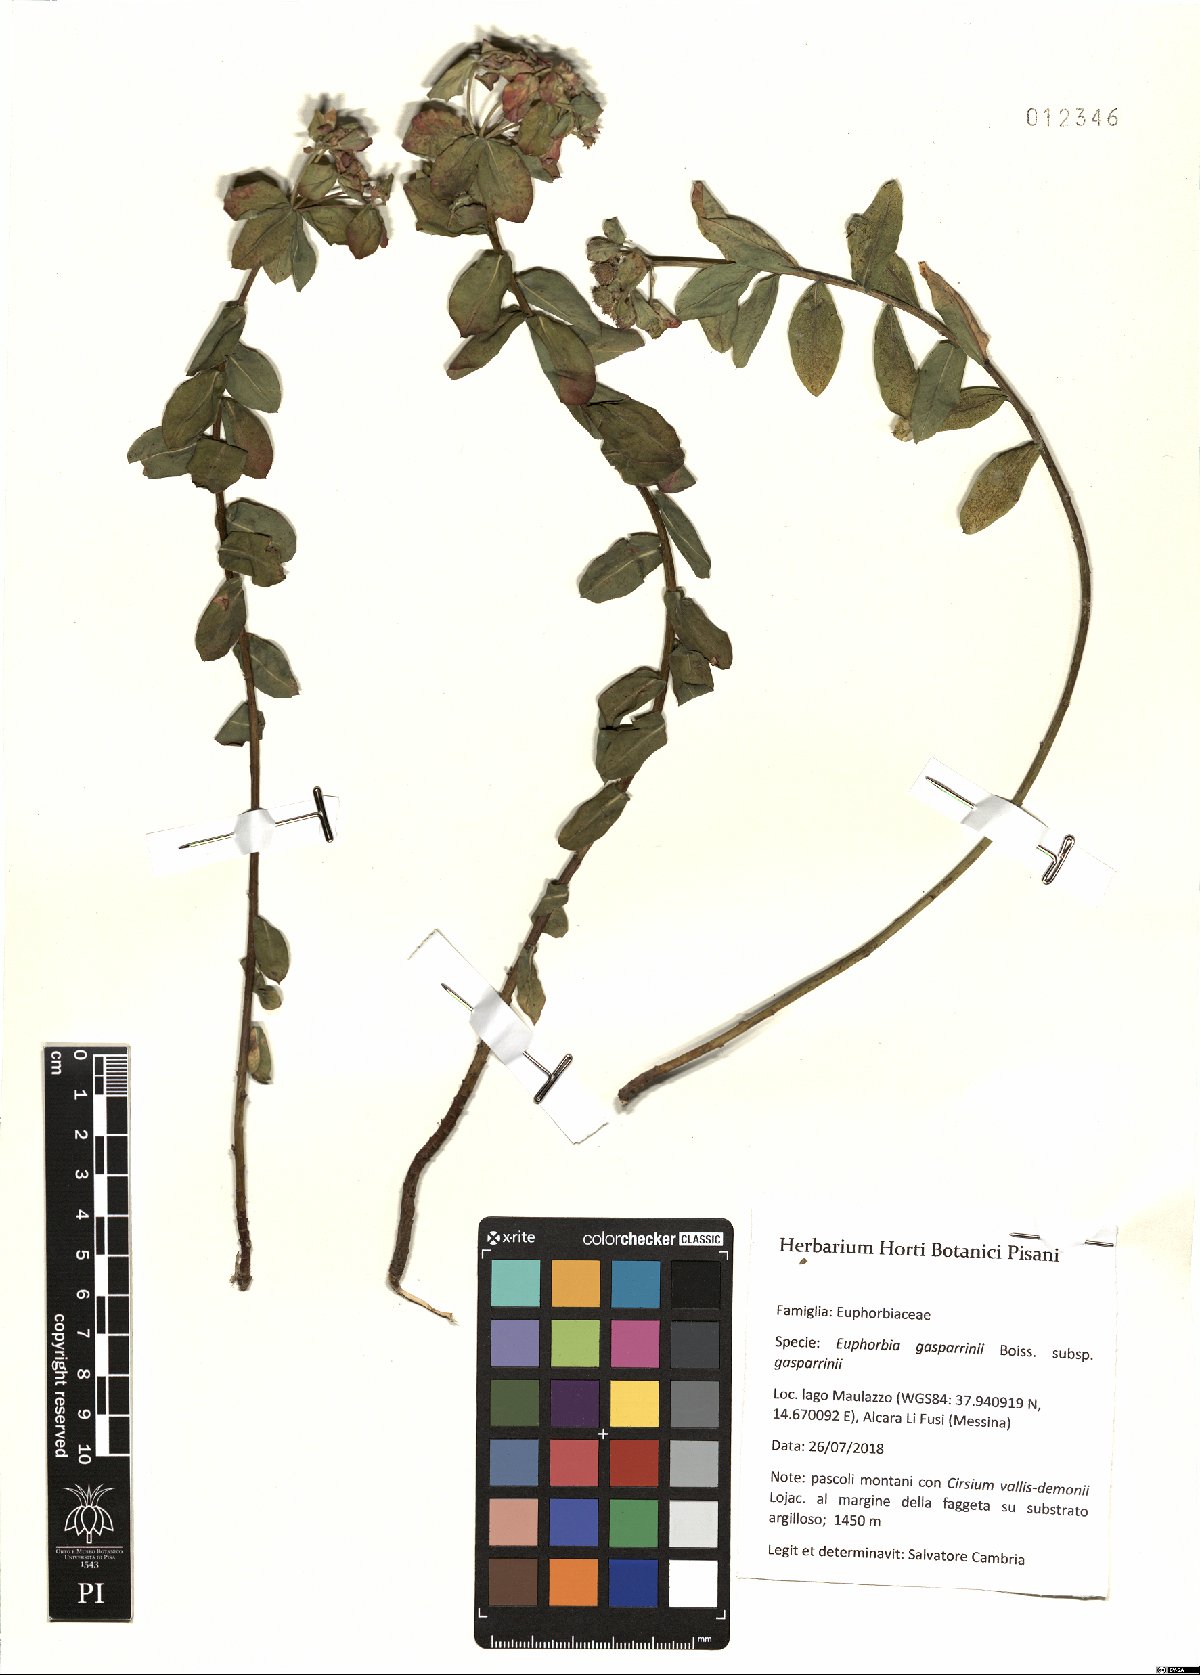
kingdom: Plantae
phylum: Tracheophyta
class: Magnoliopsida
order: Malpighiales
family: Euphorbiaceae
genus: Euphorbia
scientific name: Euphorbia gasparrinii
